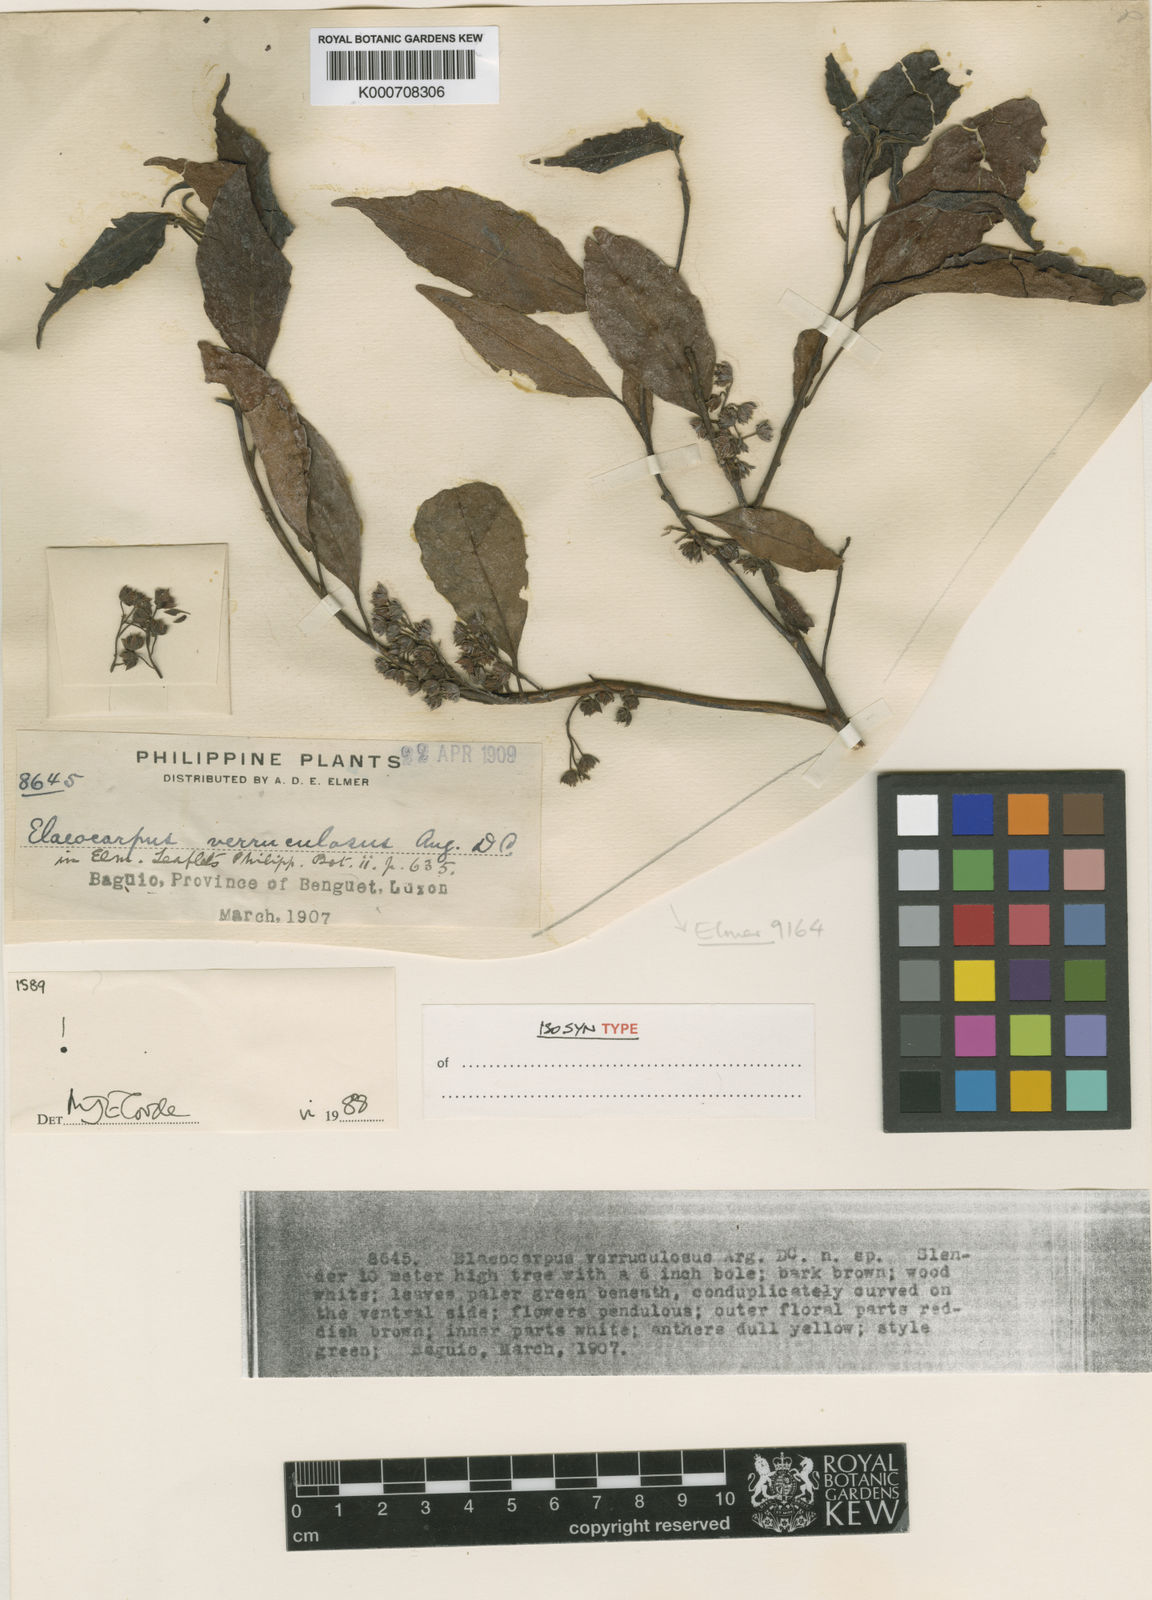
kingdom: Plantae
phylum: Tracheophyta
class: Magnoliopsida
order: Oxalidales
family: Elaeocarpaceae
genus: Elaeocarpus
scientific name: Elaeocarpus verruculosus
